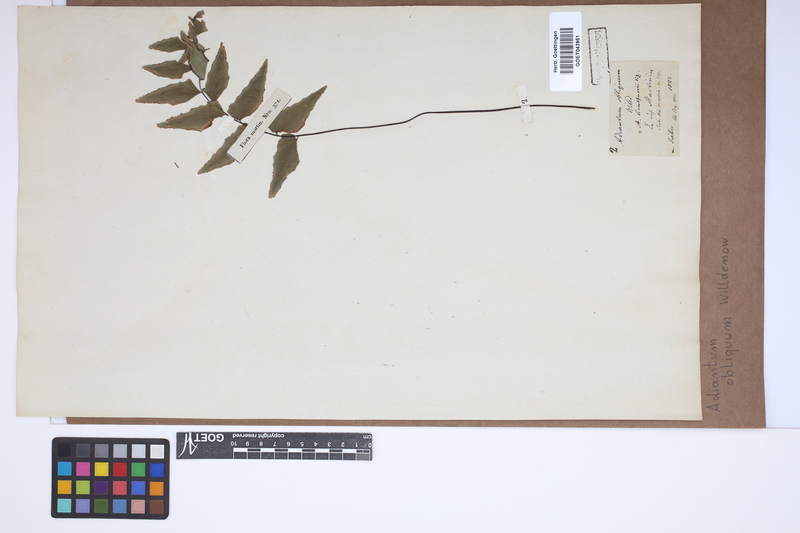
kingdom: Plantae
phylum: Tracheophyta
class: Polypodiopsida
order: Polypodiales
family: Pteridaceae
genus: Adiantum
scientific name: Adiantum macrophyllum
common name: Largeleaf maidenhair
